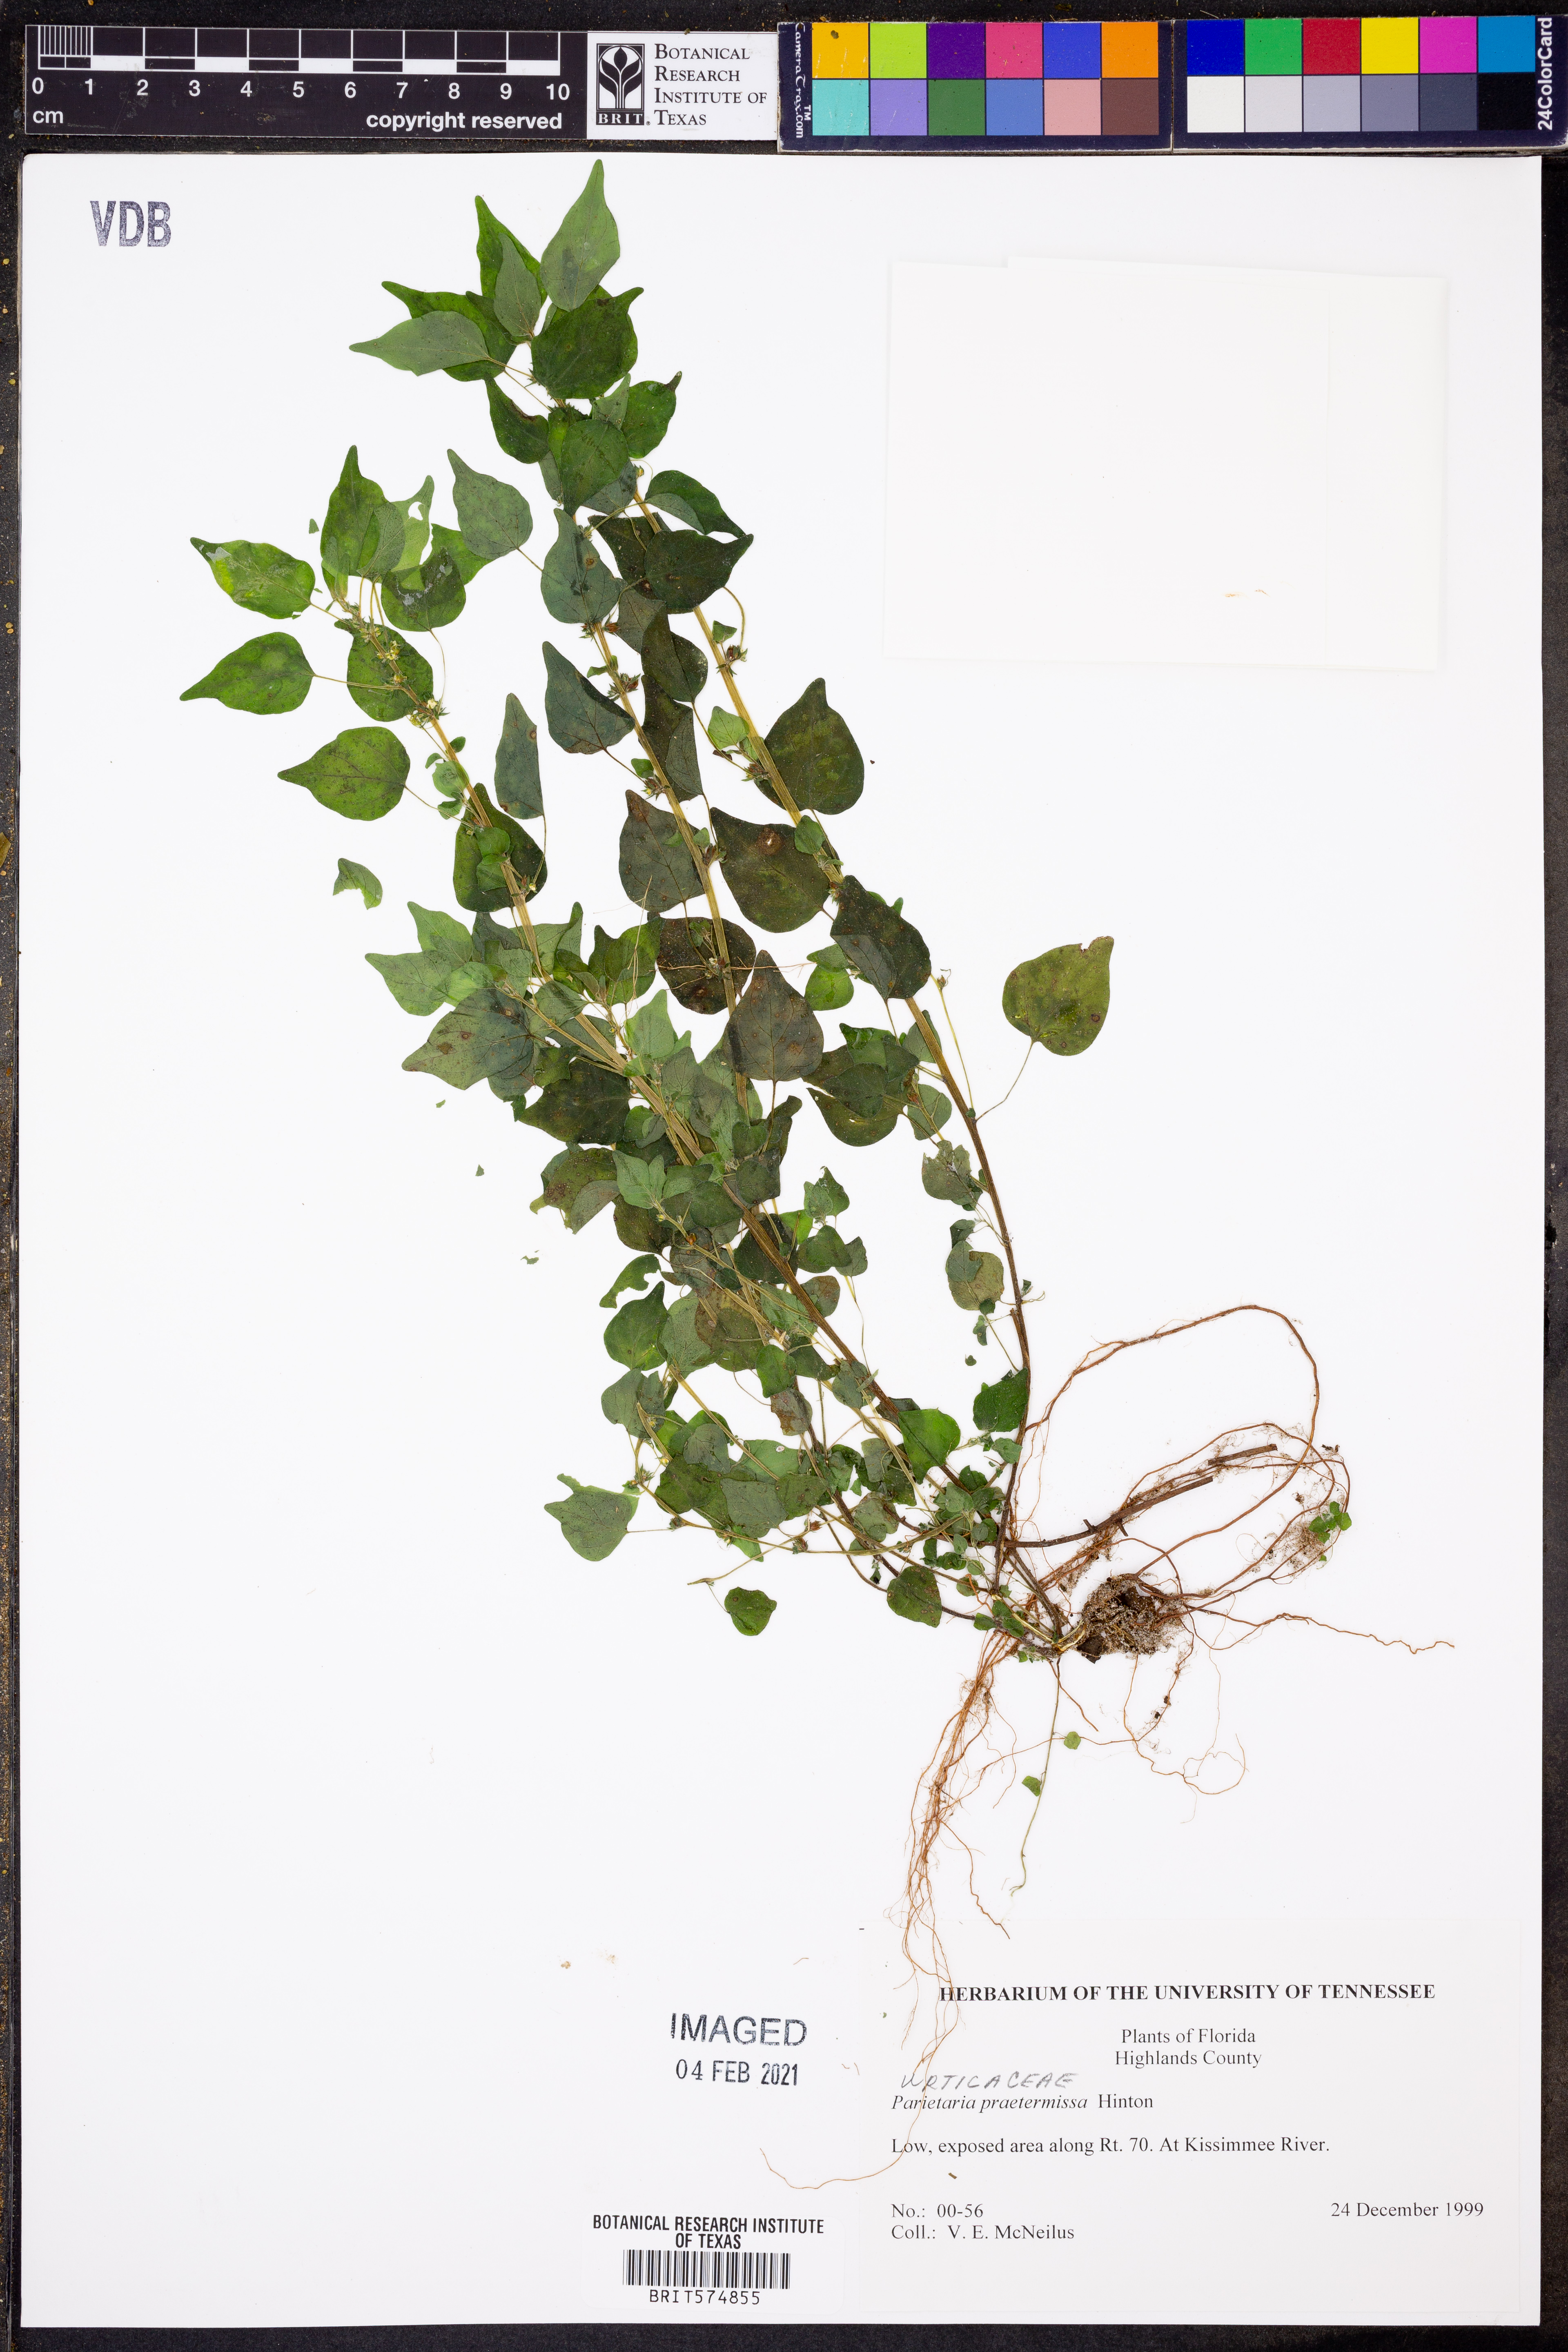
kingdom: Plantae
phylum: Tracheophyta
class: Magnoliopsida
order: Rosales
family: Urticaceae
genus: Parietaria
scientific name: Parietaria praetermissa
